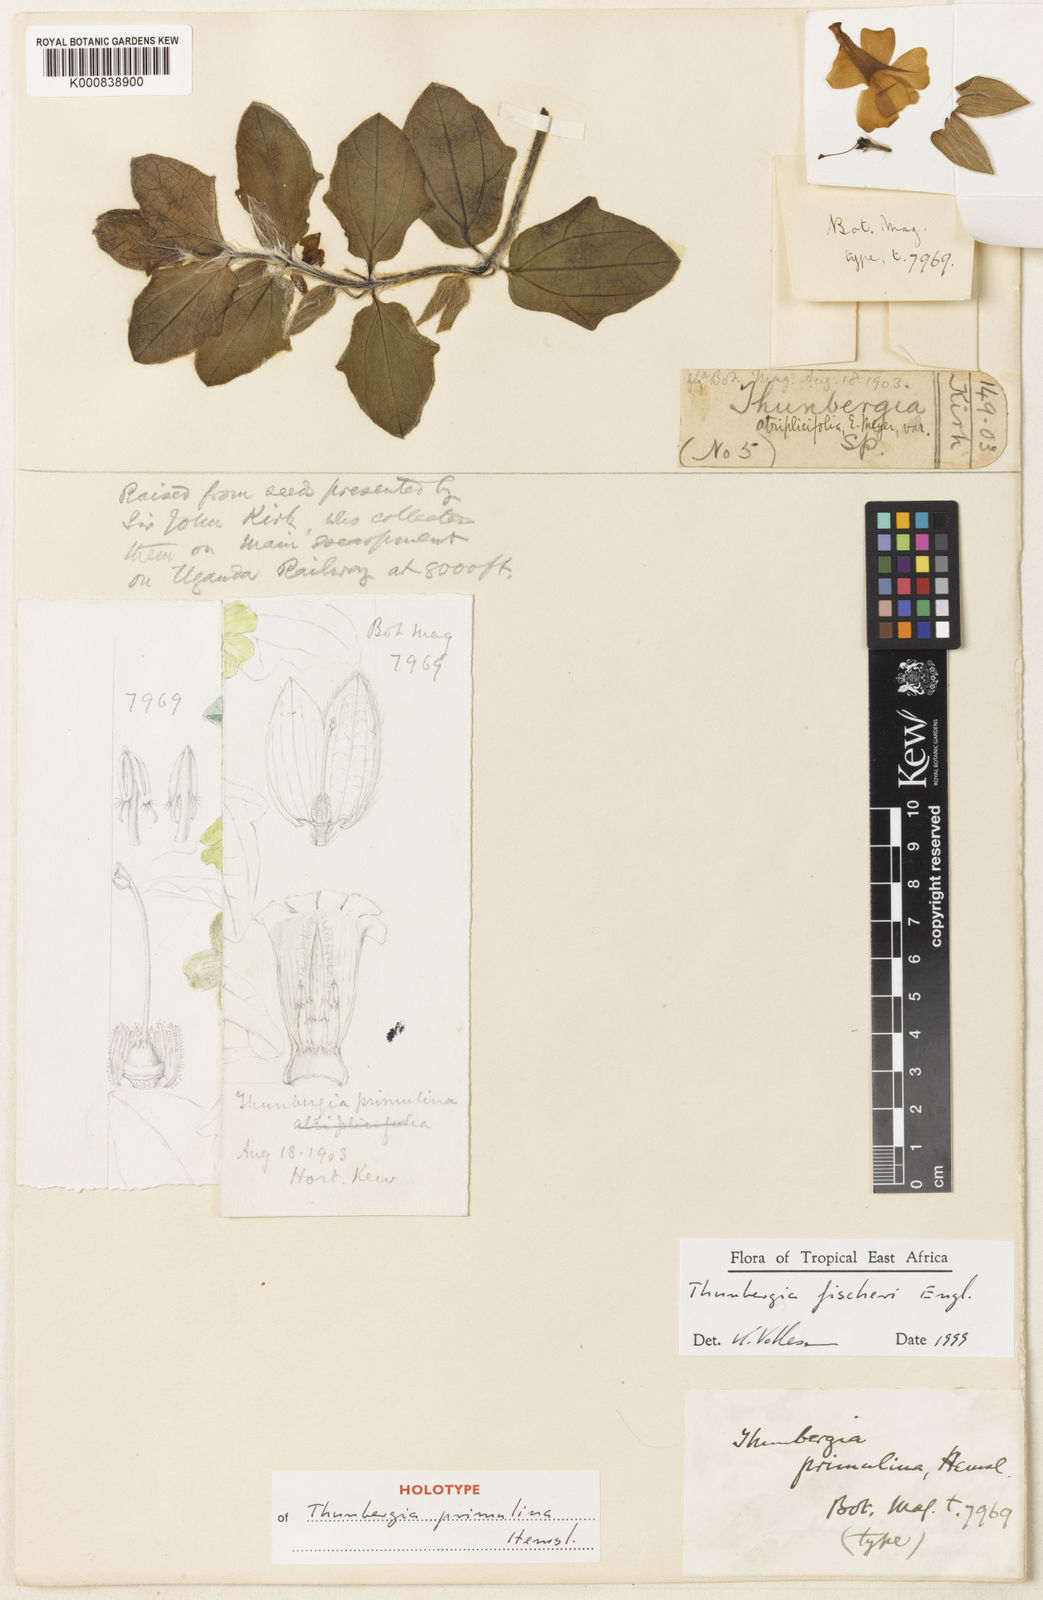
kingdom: Plantae
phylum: Tracheophyta
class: Magnoliopsida
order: Lamiales
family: Acanthaceae
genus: Thunbergia
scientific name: Thunbergia fischeri
